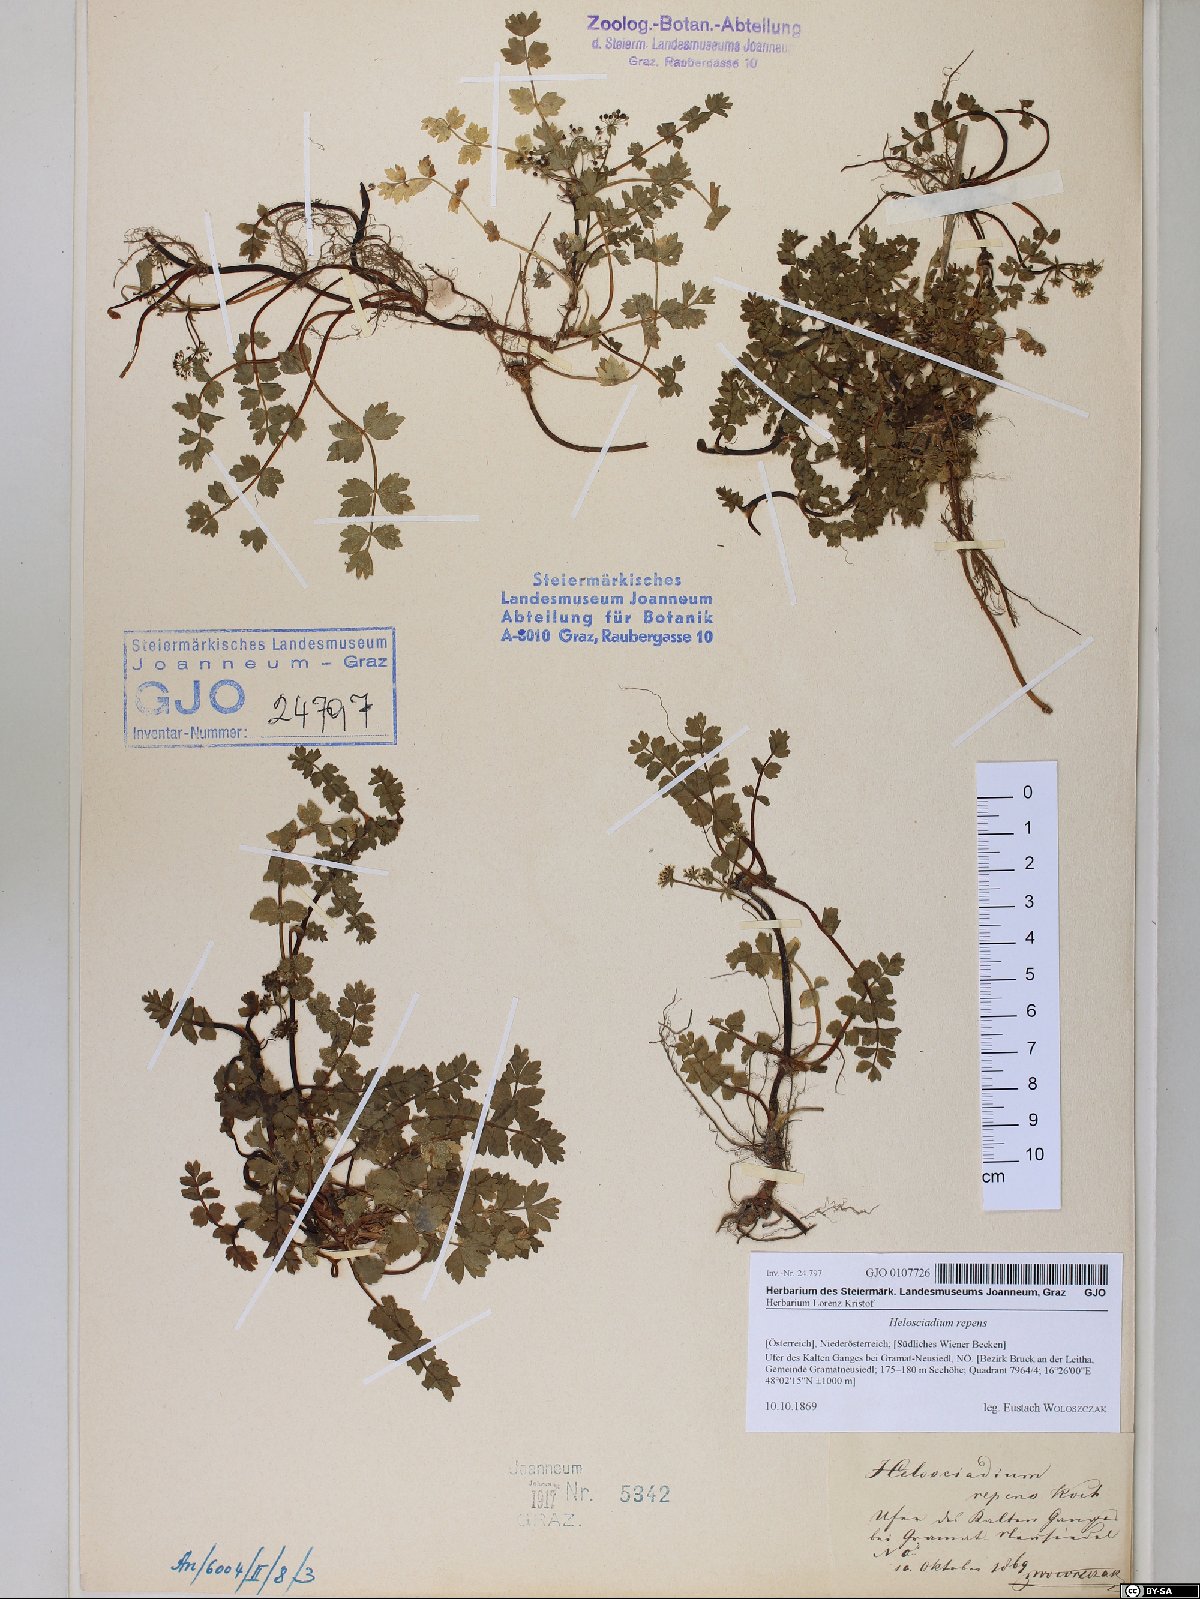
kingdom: Plantae
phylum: Tracheophyta
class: Magnoliopsida
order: Apiales
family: Apiaceae
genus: Helosciadium
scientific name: Helosciadium repens
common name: Creeping marshwort
